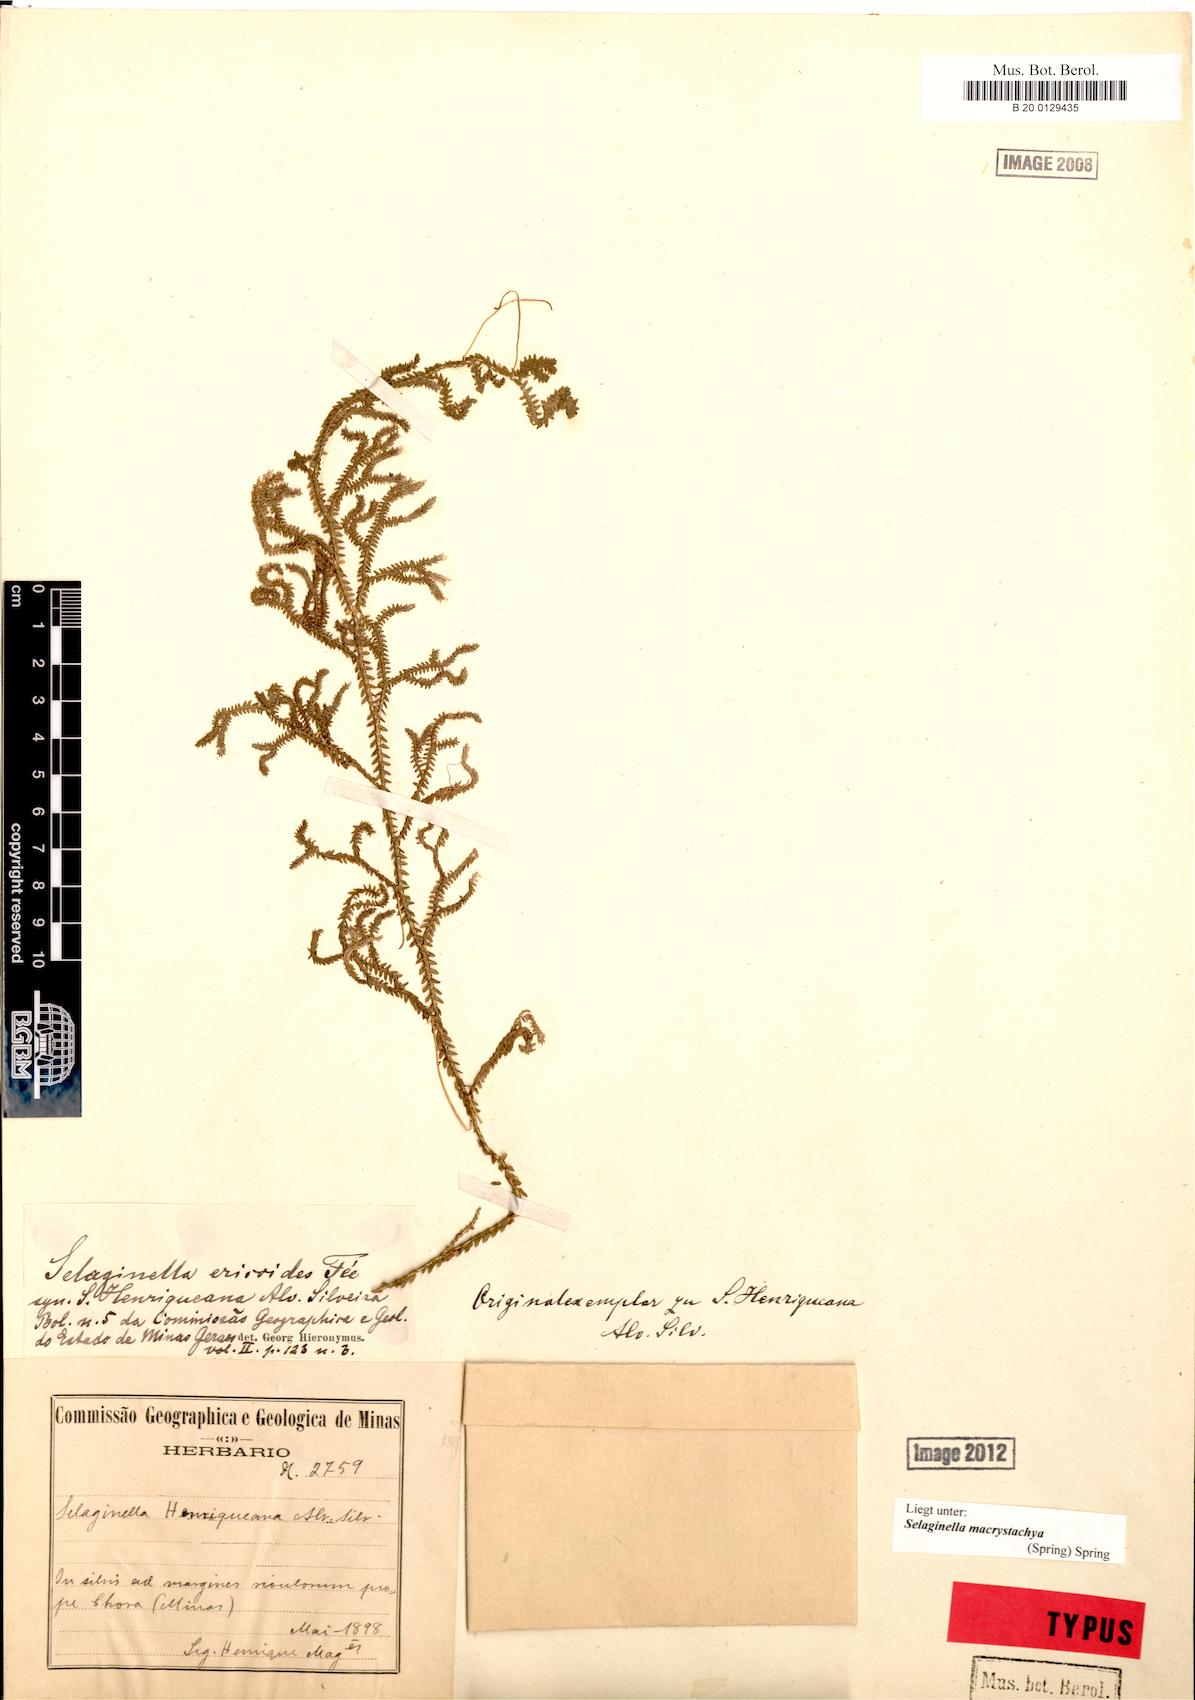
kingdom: Plantae
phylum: Tracheophyta
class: Lycopodiopsida
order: Selaginellales
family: Selaginellaceae
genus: Selaginella
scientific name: Selaginella macrostachya
